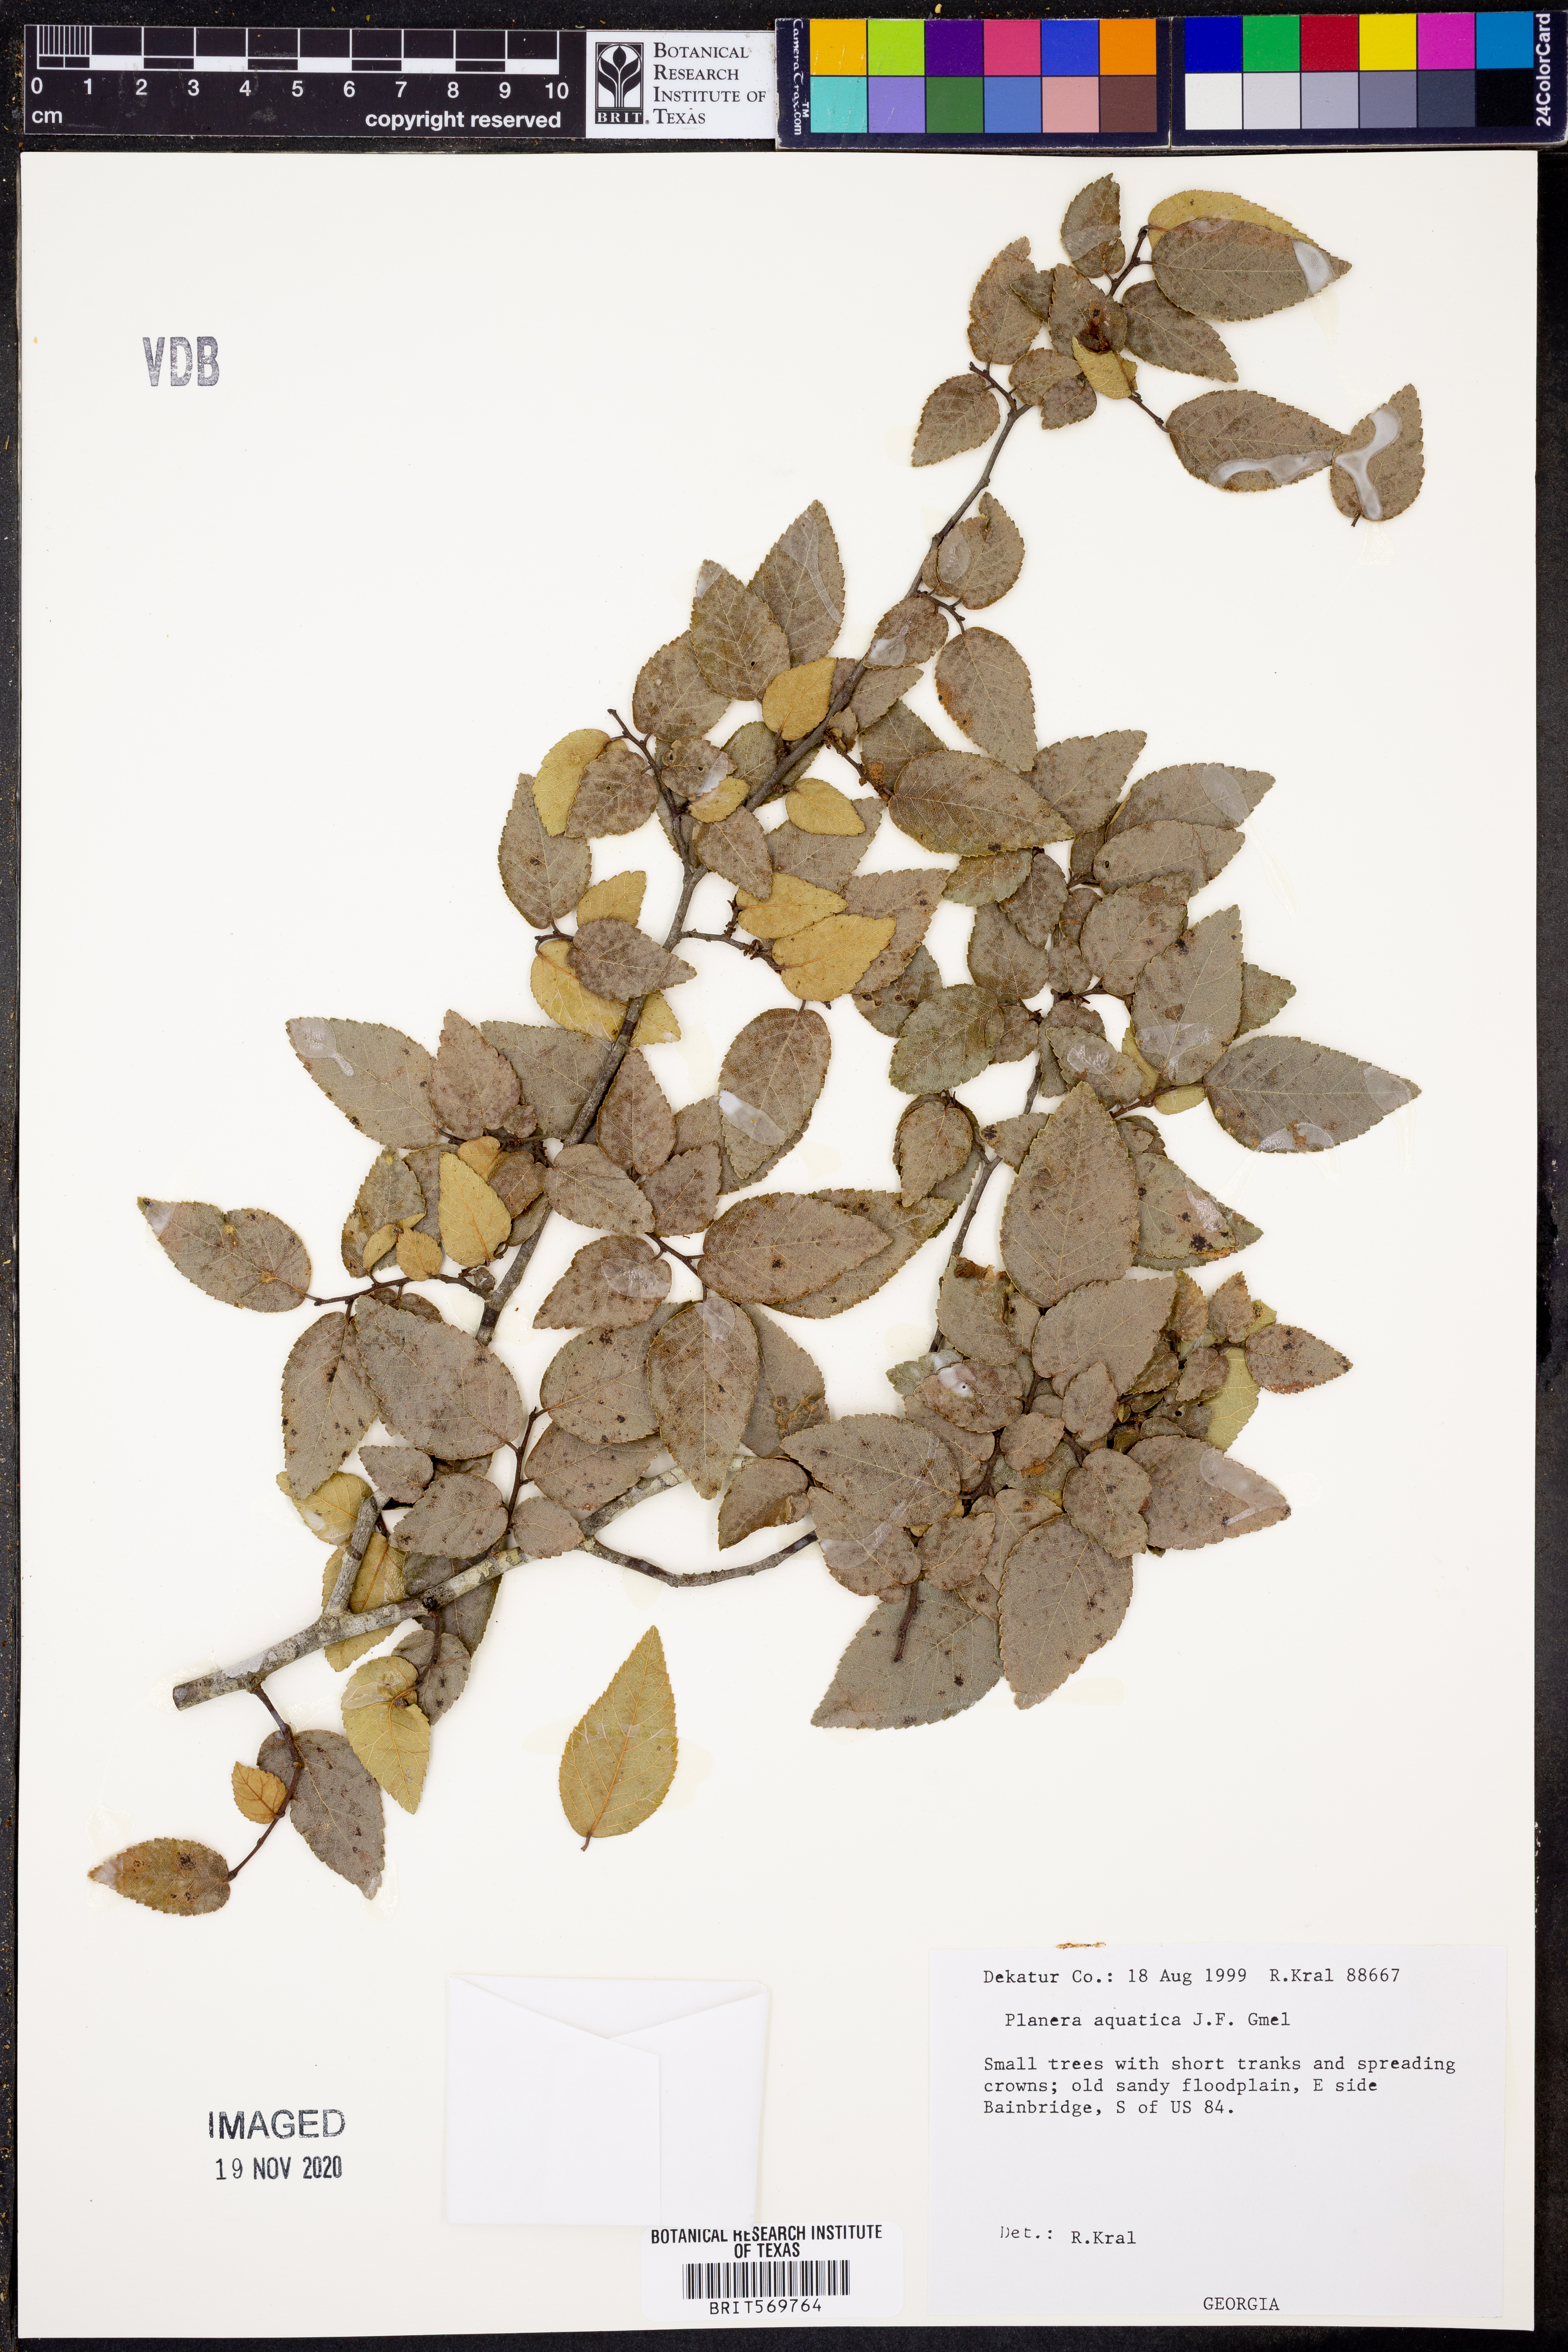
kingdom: Plantae
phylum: Tracheophyta
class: Magnoliopsida
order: Rosales
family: Ulmaceae
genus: Planera
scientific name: Planera aquatica
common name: Water-elm
